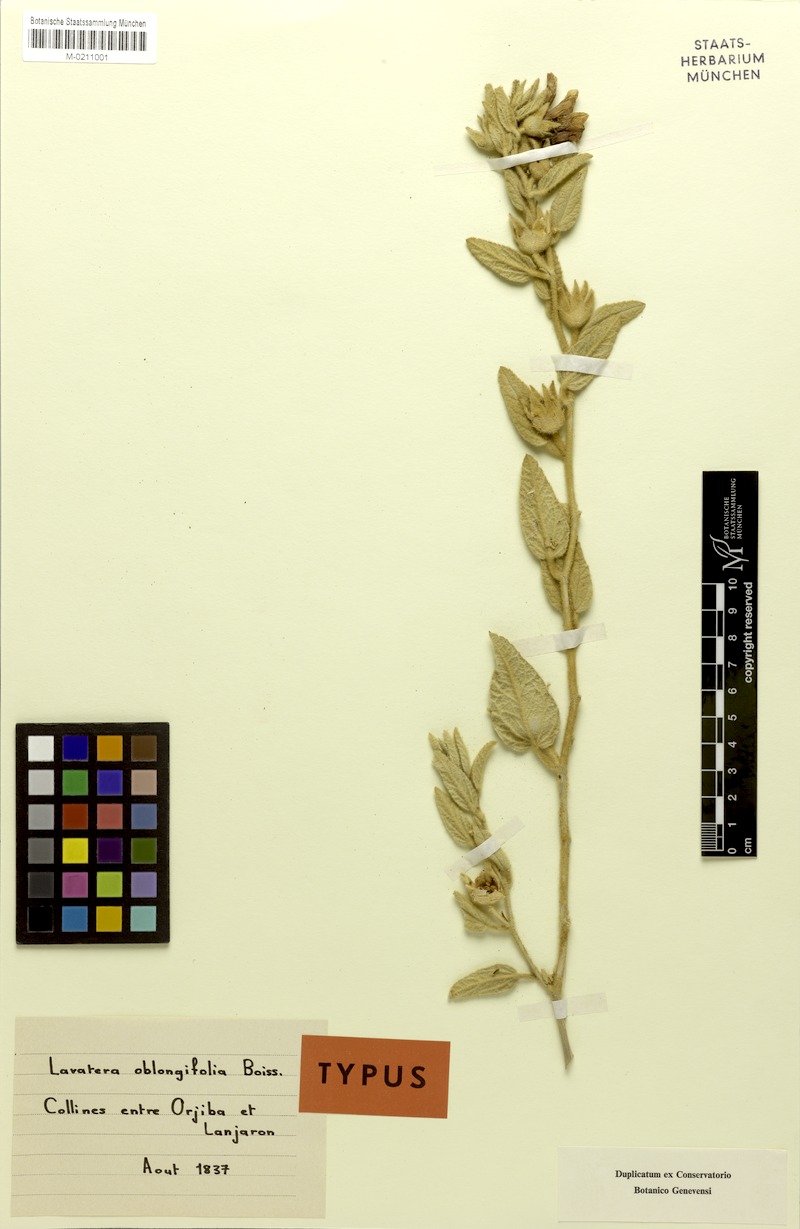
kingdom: Plantae
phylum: Tracheophyta
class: Magnoliopsida
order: Malvales
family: Malvaceae
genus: Malva
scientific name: Malva oblongifolia
